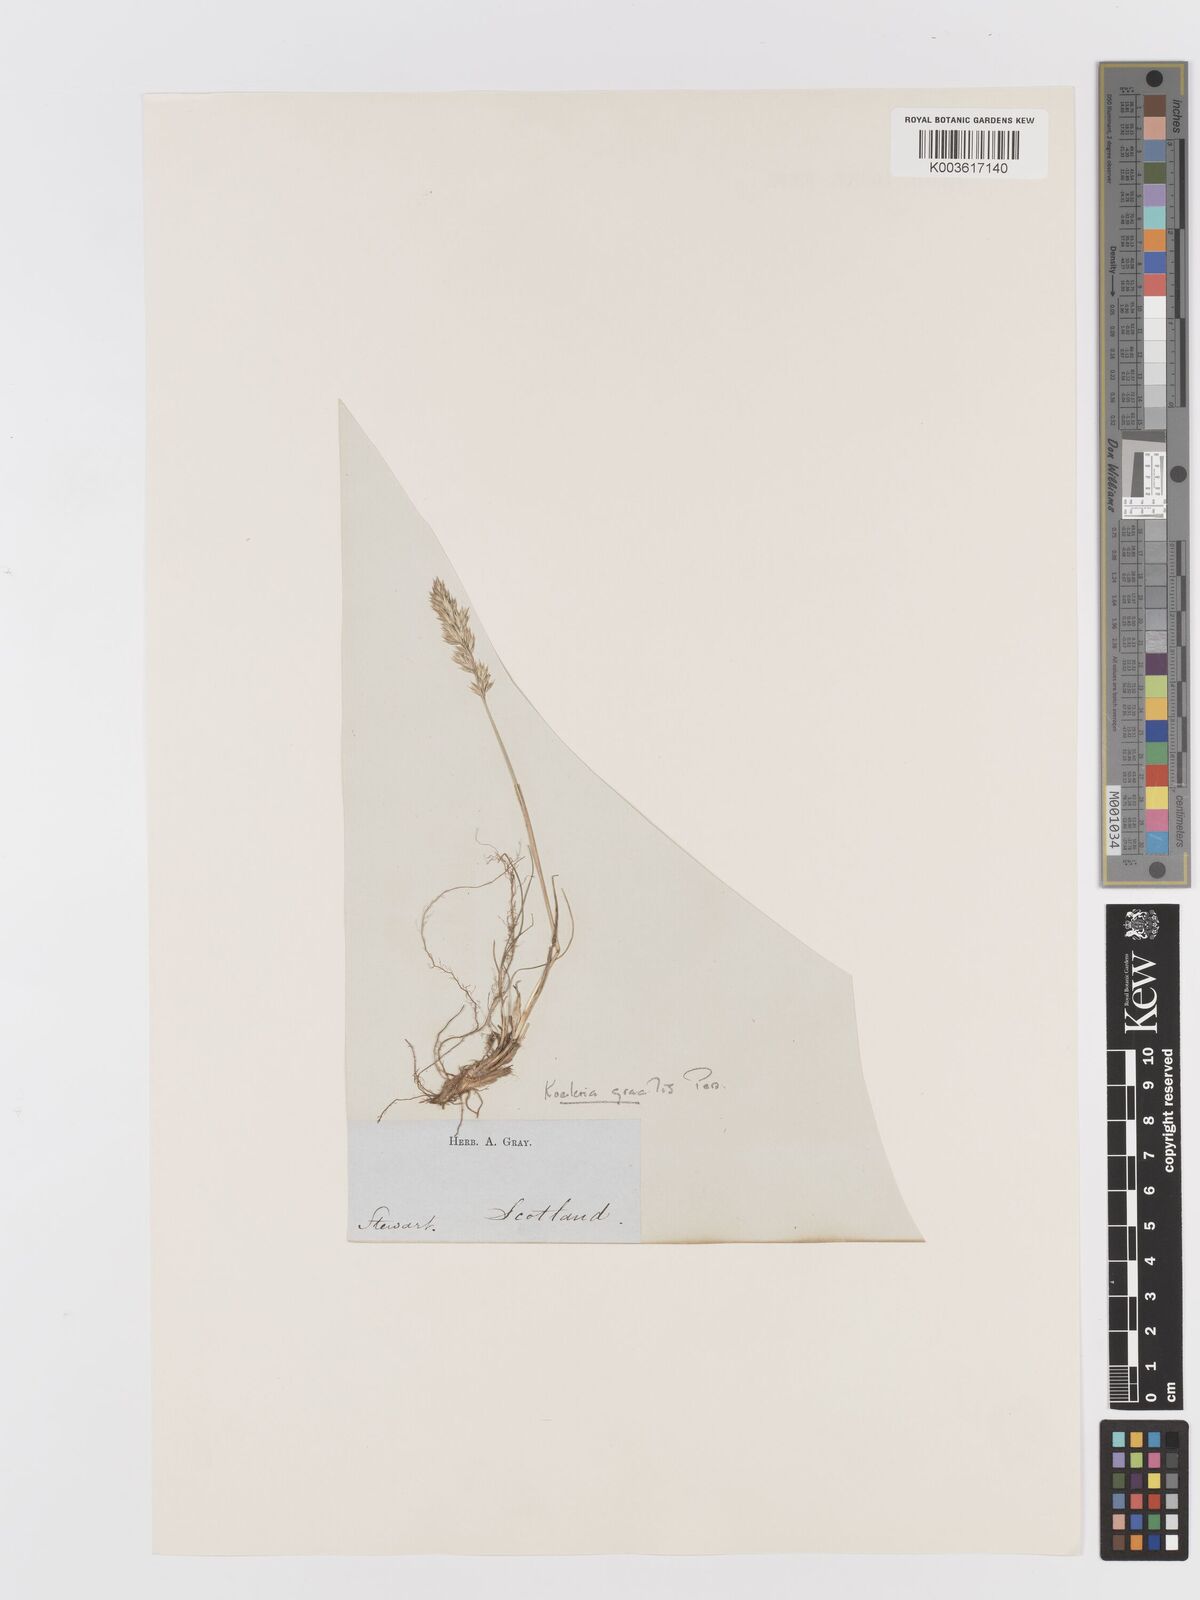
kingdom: Plantae
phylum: Tracheophyta
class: Liliopsida
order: Poales
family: Poaceae
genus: Koeleria
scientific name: Koeleria macrantha
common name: Crested hair-grass
